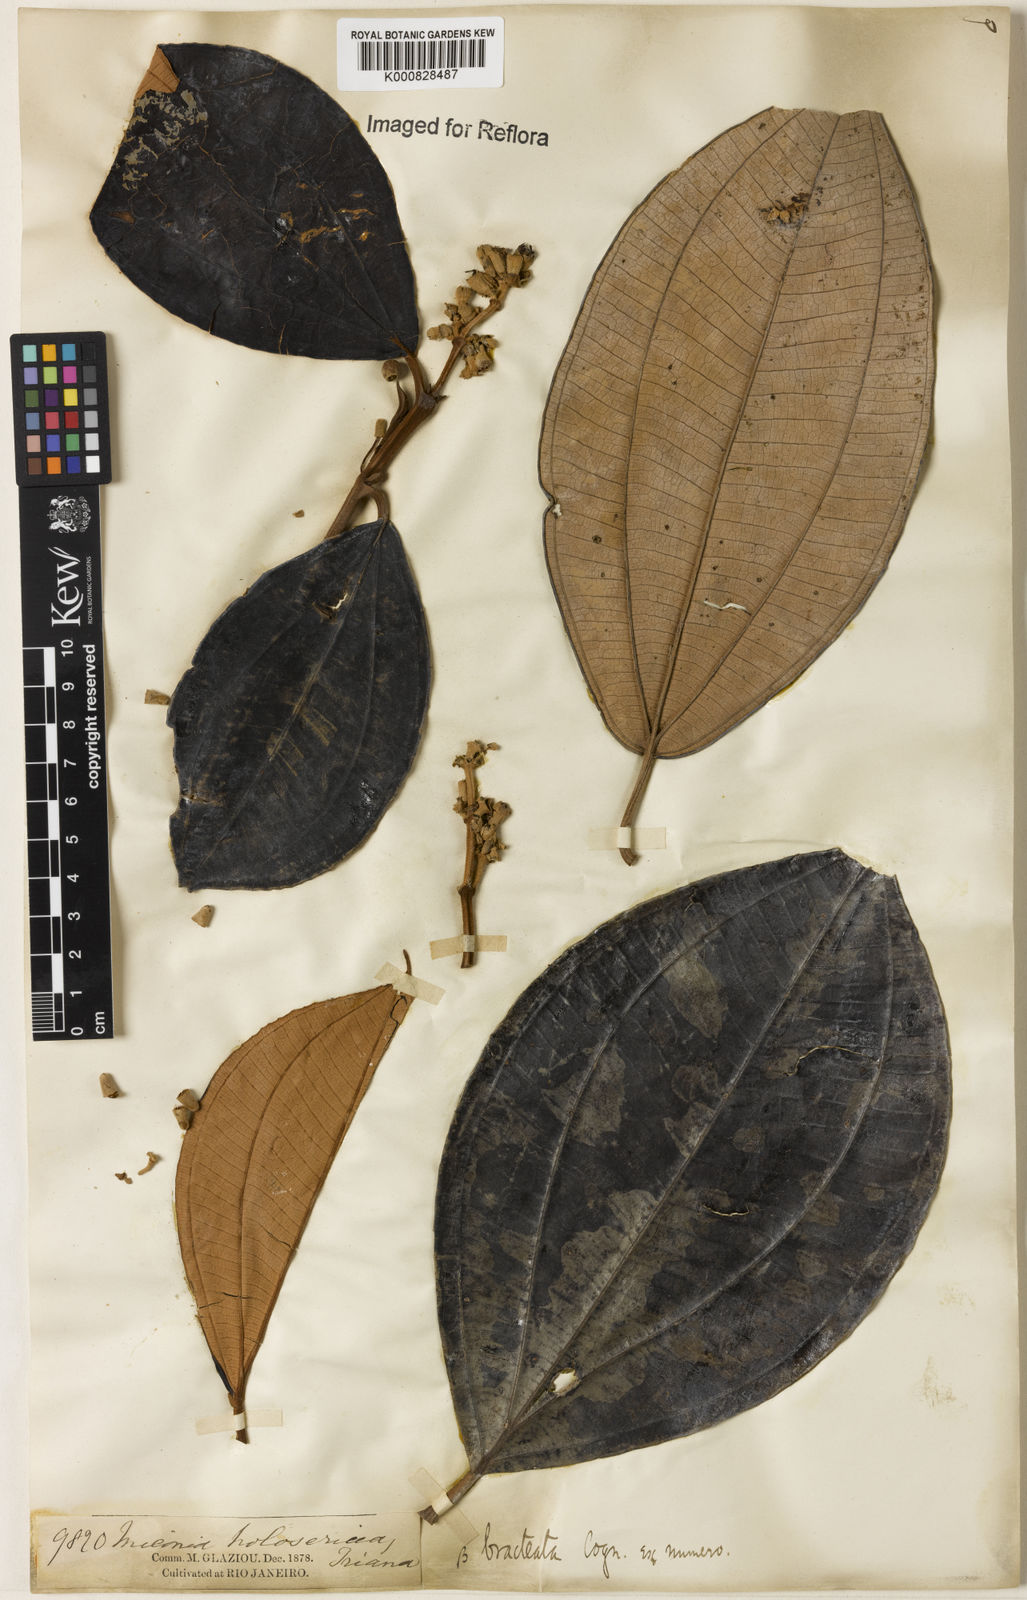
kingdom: Plantae
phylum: Tracheophyta
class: Magnoliopsida
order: Myrtales
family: Melastomataceae
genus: Miconia
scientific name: Miconia holosericea
